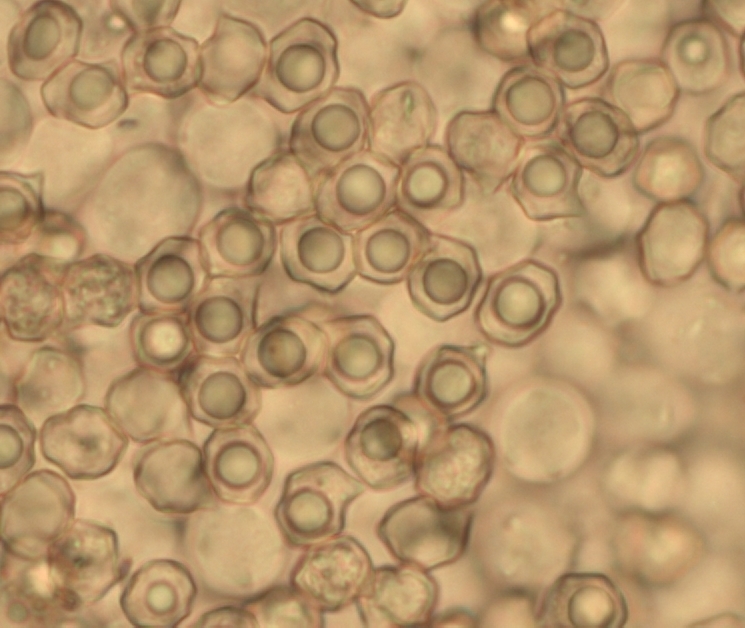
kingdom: Fungi
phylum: Basidiomycota
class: Agaricomycetes
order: Agaricales
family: Entolomataceae
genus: Entoloma
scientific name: Entoloma pallens
